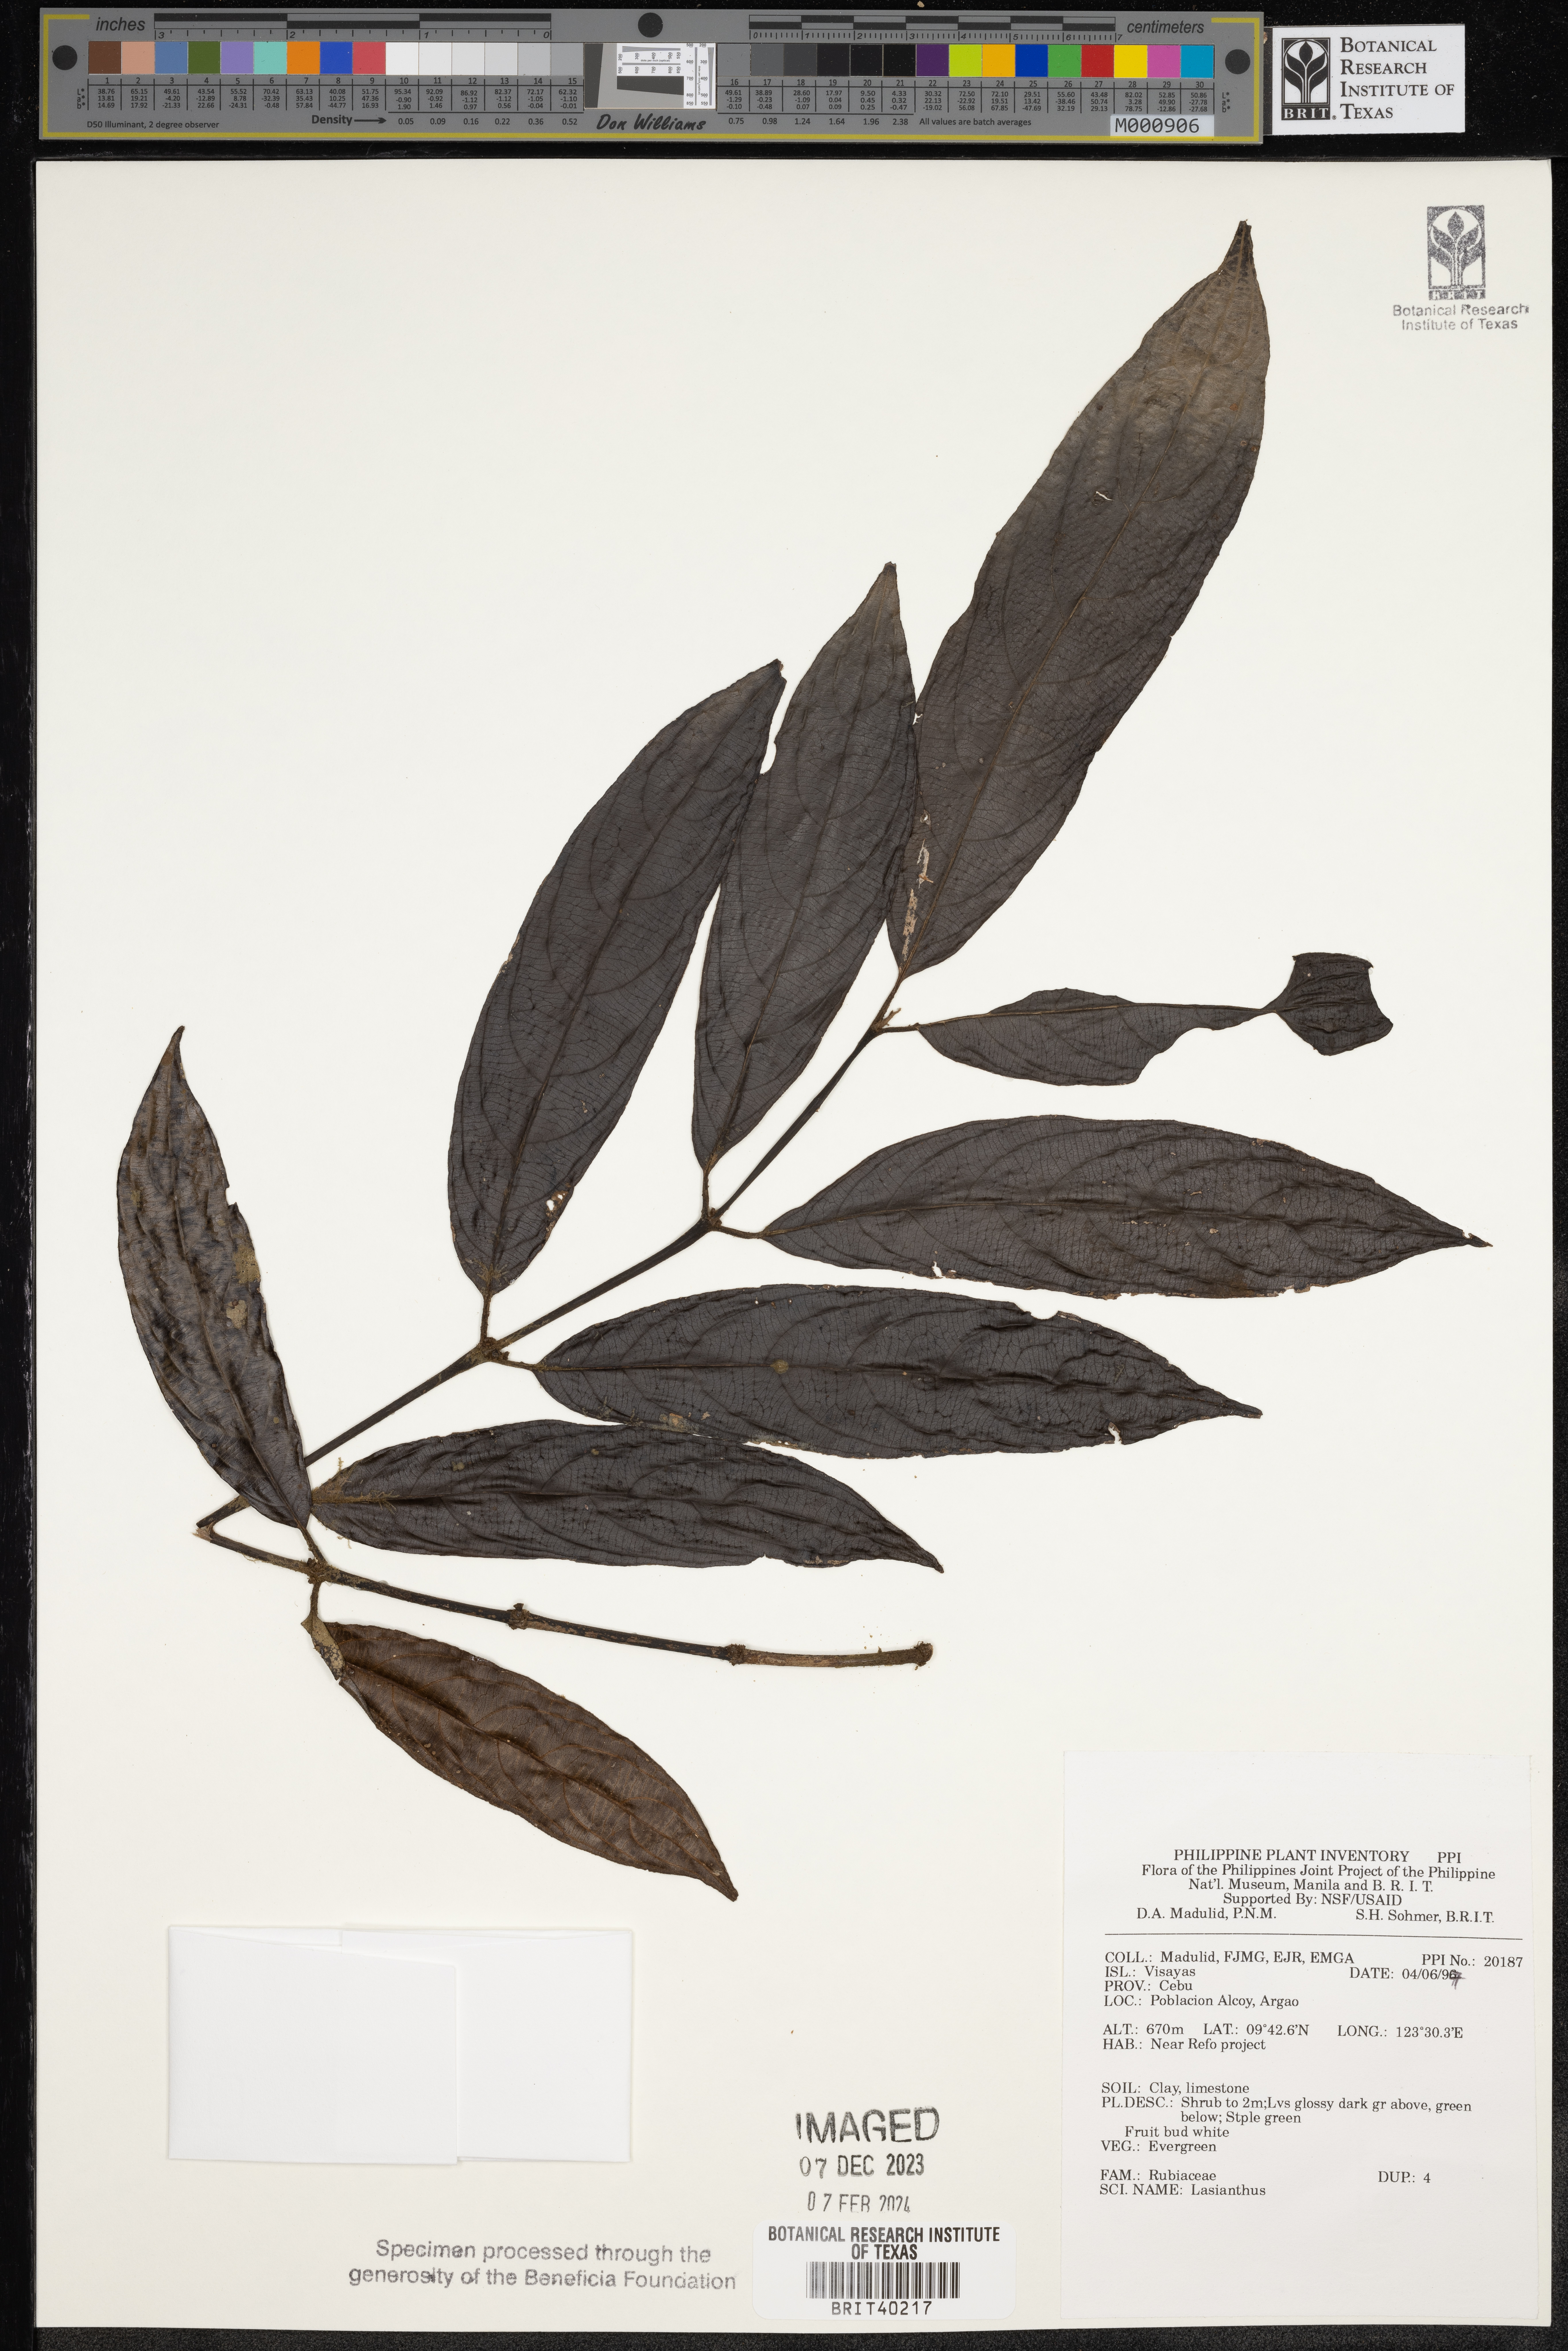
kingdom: Plantae
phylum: Tracheophyta
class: Magnoliopsida
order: Gentianales
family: Rubiaceae
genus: Lasianthus
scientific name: Lasianthus
